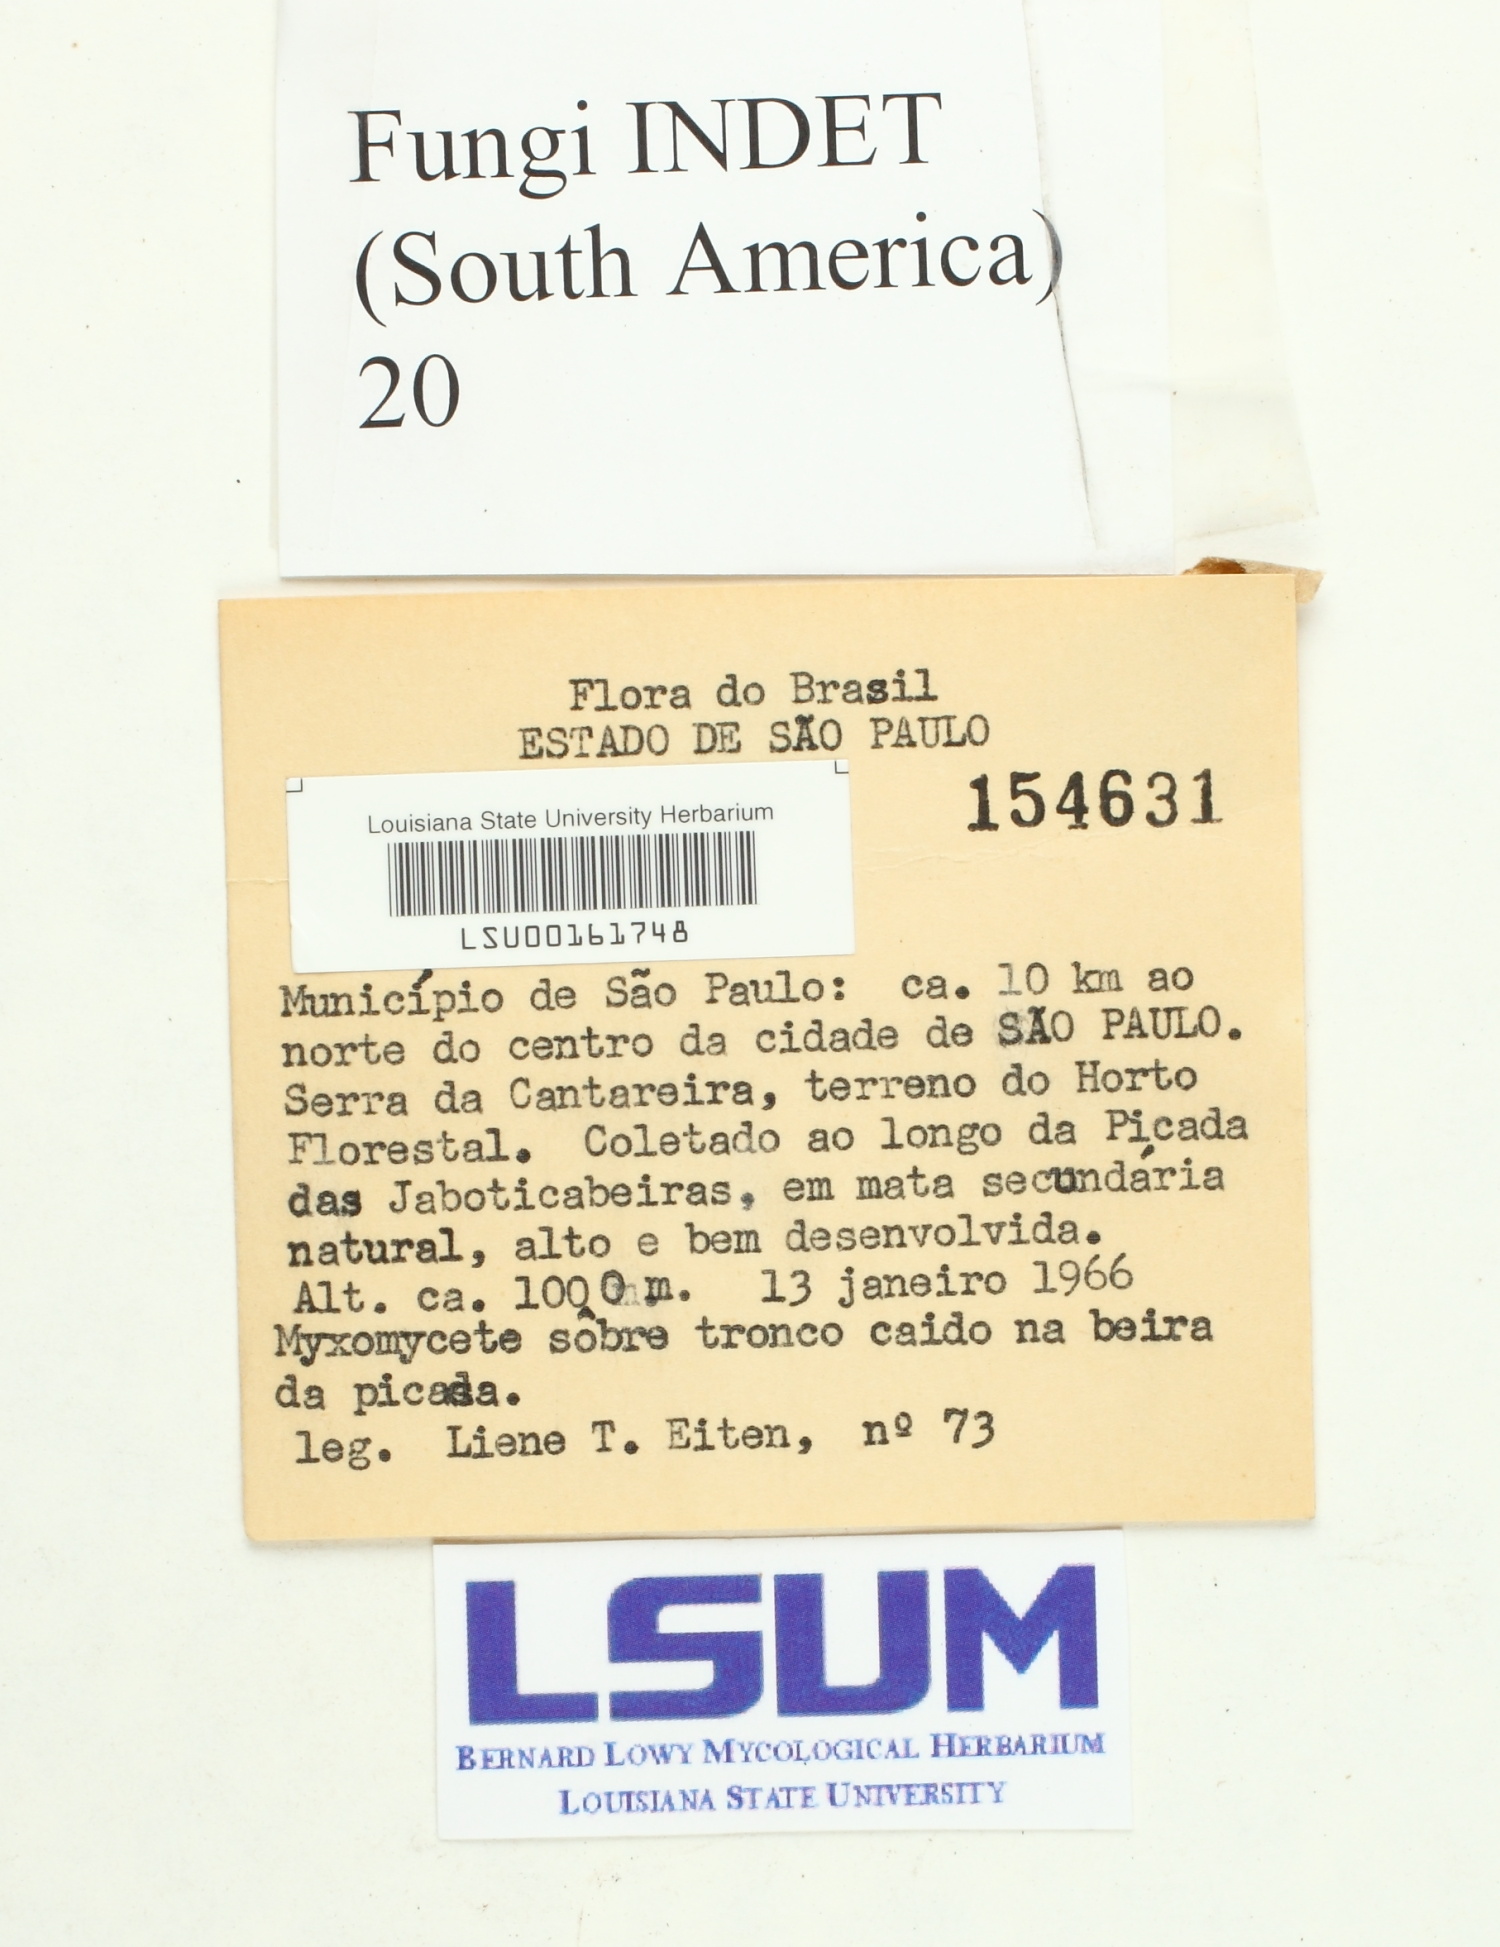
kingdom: Fungi
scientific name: Fungi
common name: Fungi
